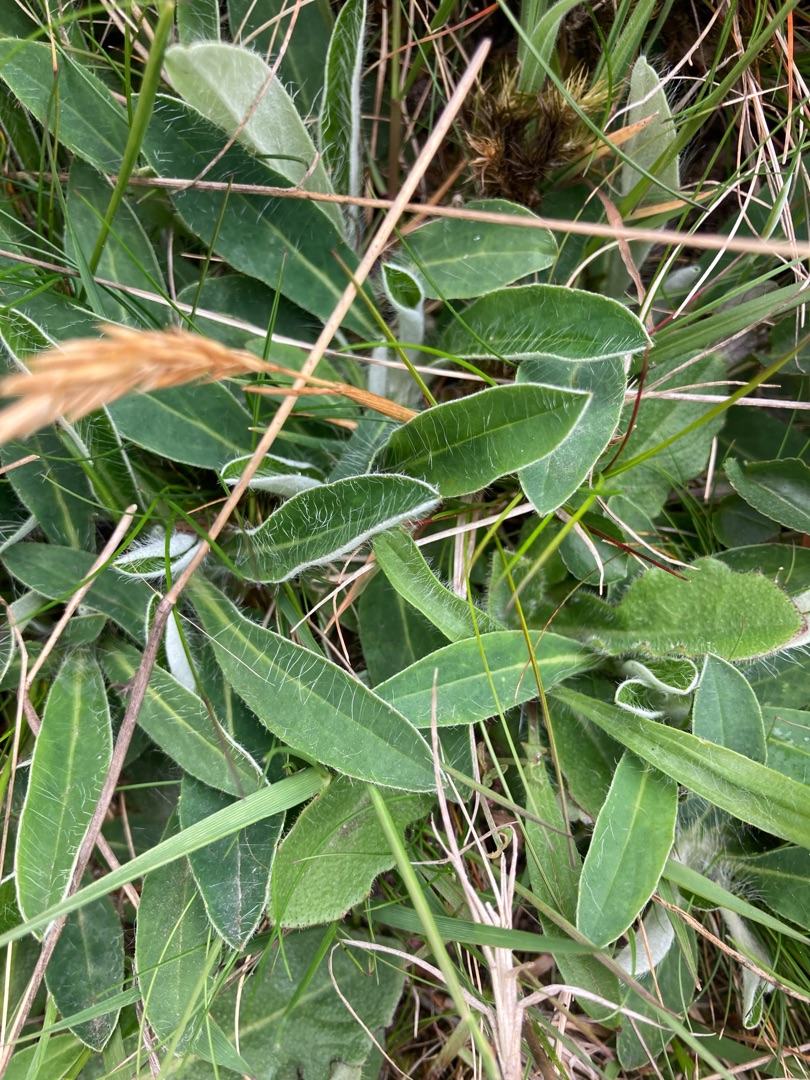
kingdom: Plantae
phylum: Tracheophyta
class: Magnoliopsida
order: Asterales
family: Asteraceae
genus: Pilosella
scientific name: Pilosella officinarum
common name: Håret høgeurt
